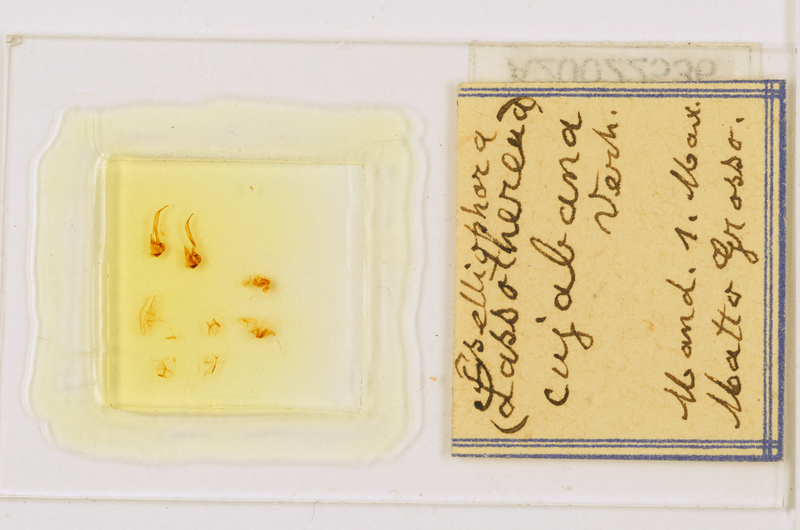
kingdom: Animalia
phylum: Arthropoda
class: Chilopoda
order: Scutigeromorpha
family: Pselliodidae
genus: Sphendononema
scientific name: Sphendononema guildingii
